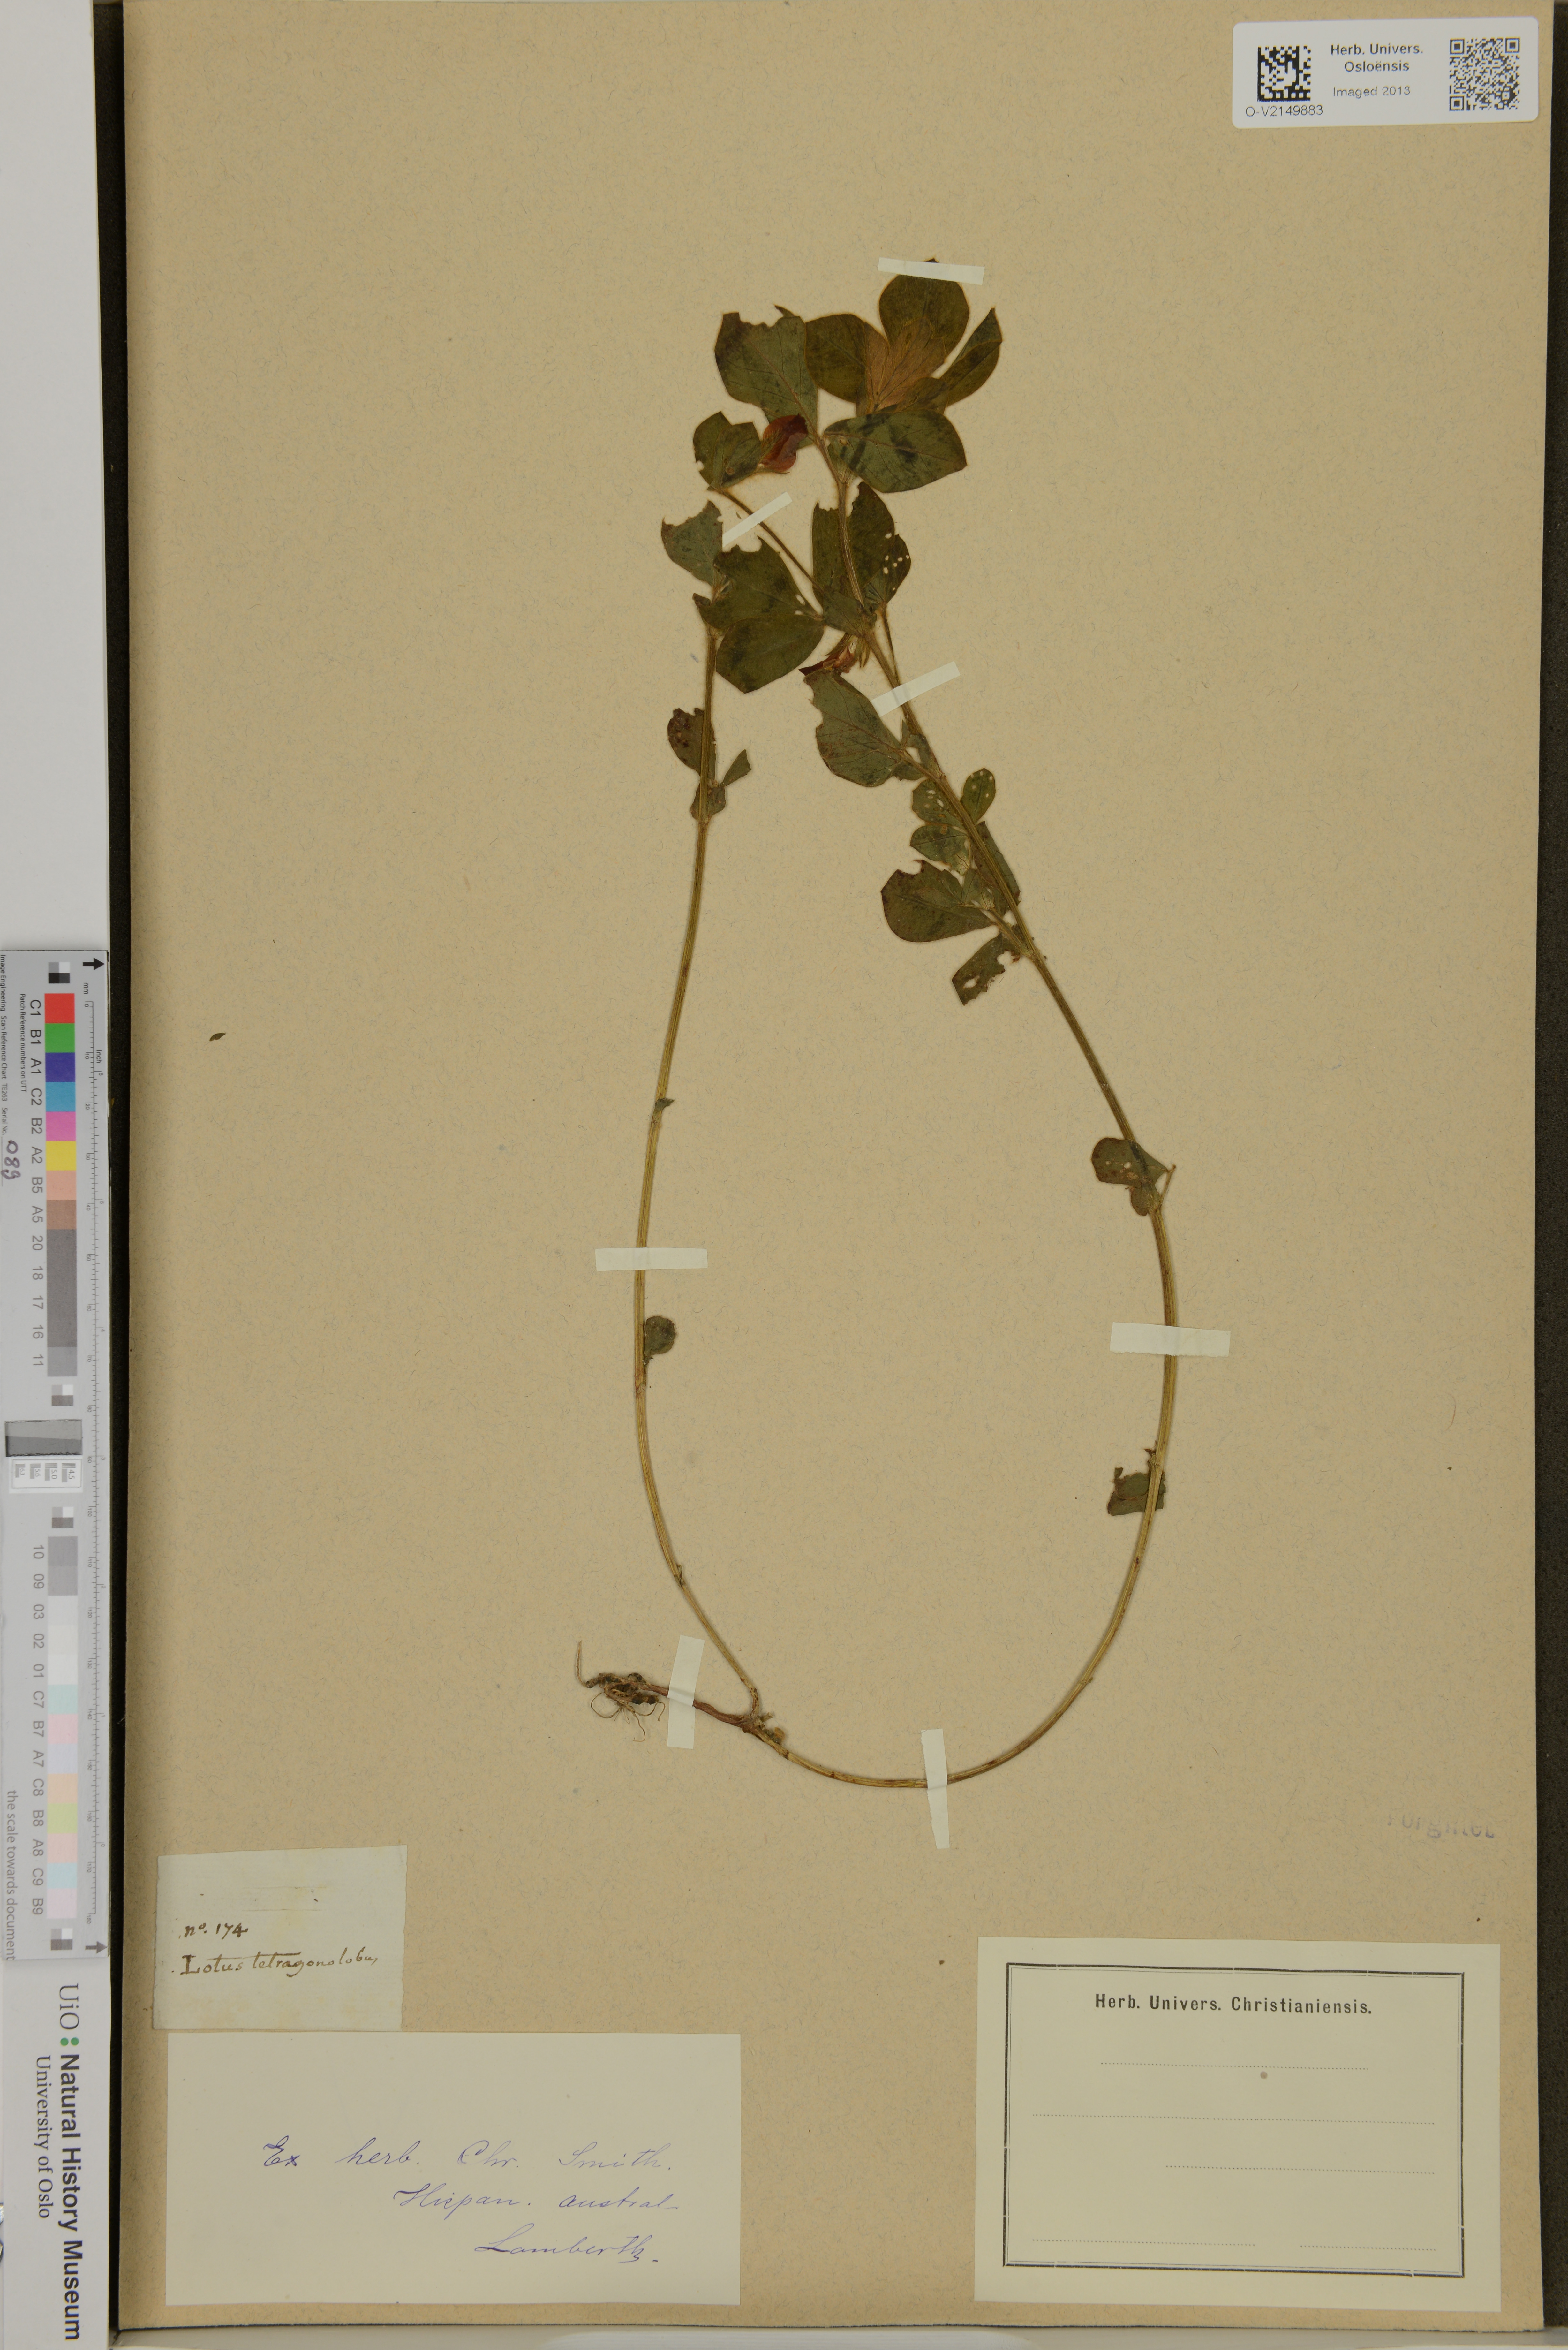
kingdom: Plantae
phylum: Tracheophyta
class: Magnoliopsida
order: Fabales
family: Fabaceae
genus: Lotus
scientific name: Lotus tetragonolobus
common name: Asparagus-pea
